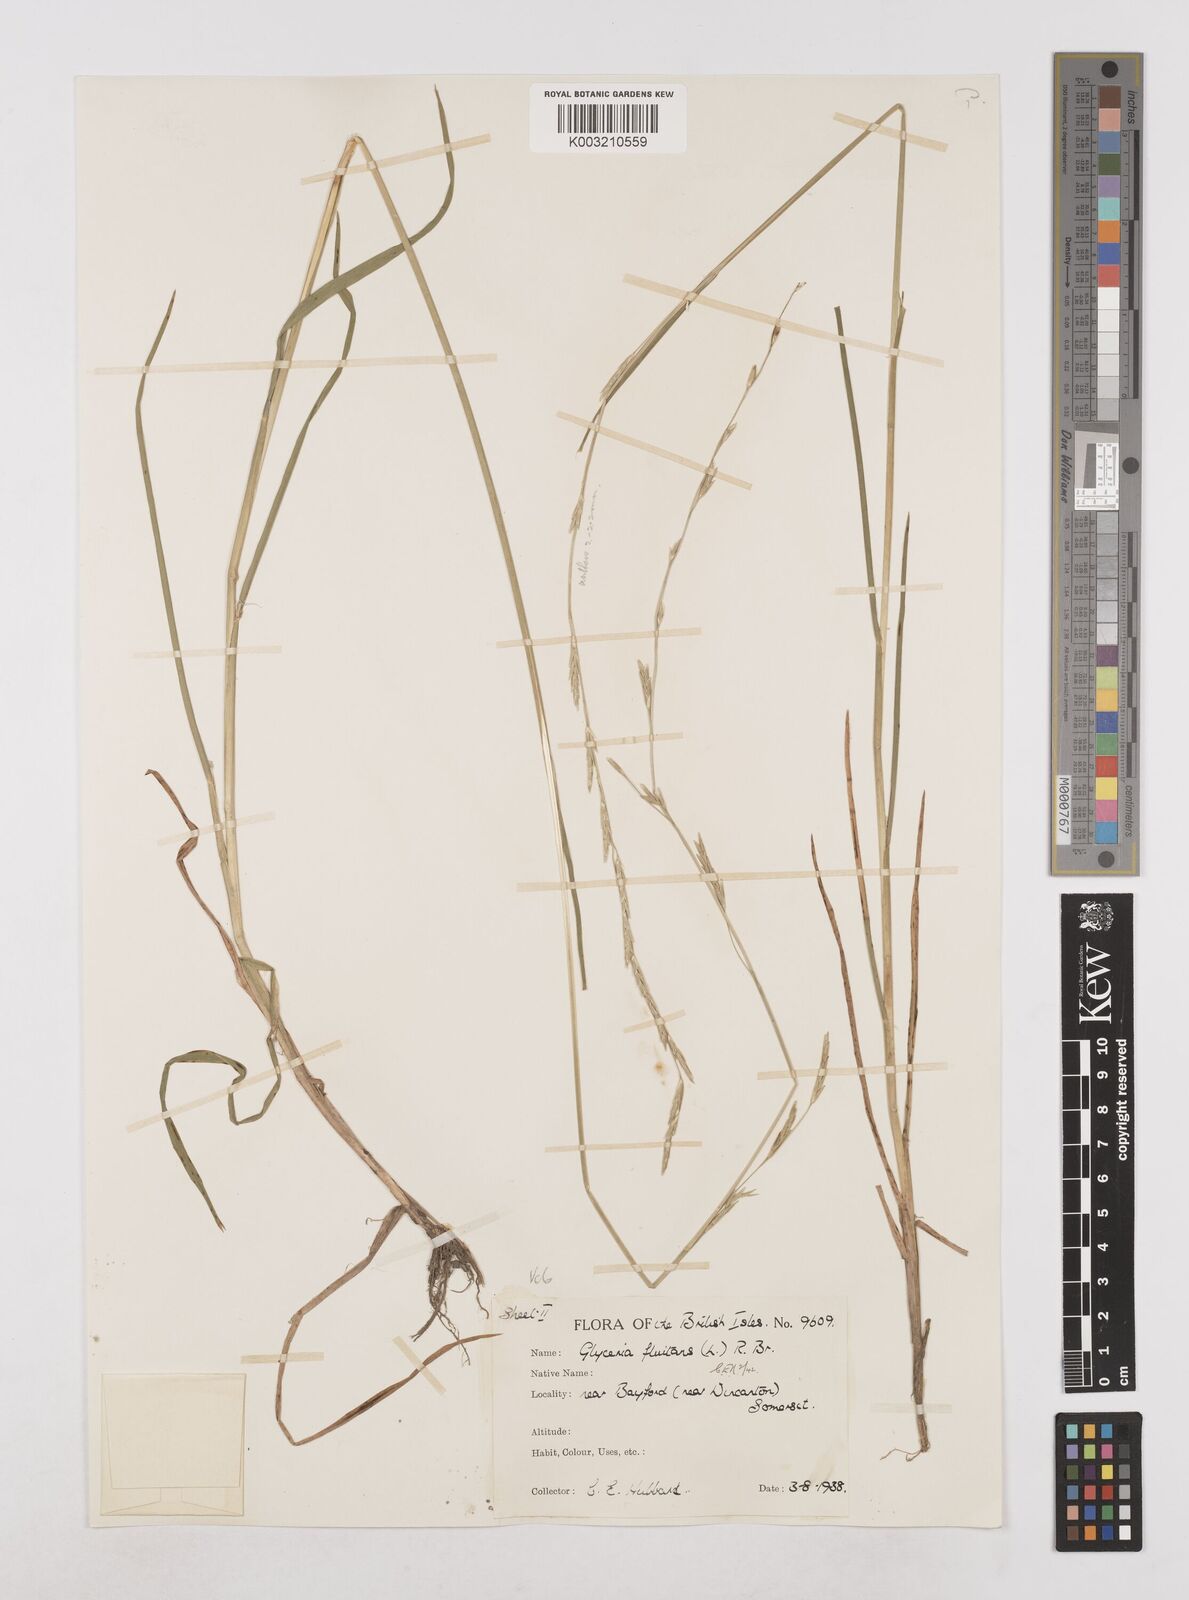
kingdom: Plantae
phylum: Tracheophyta
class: Liliopsida
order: Poales
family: Poaceae
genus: Glyceria
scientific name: Glyceria fluitans
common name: Floating sweet-grass
